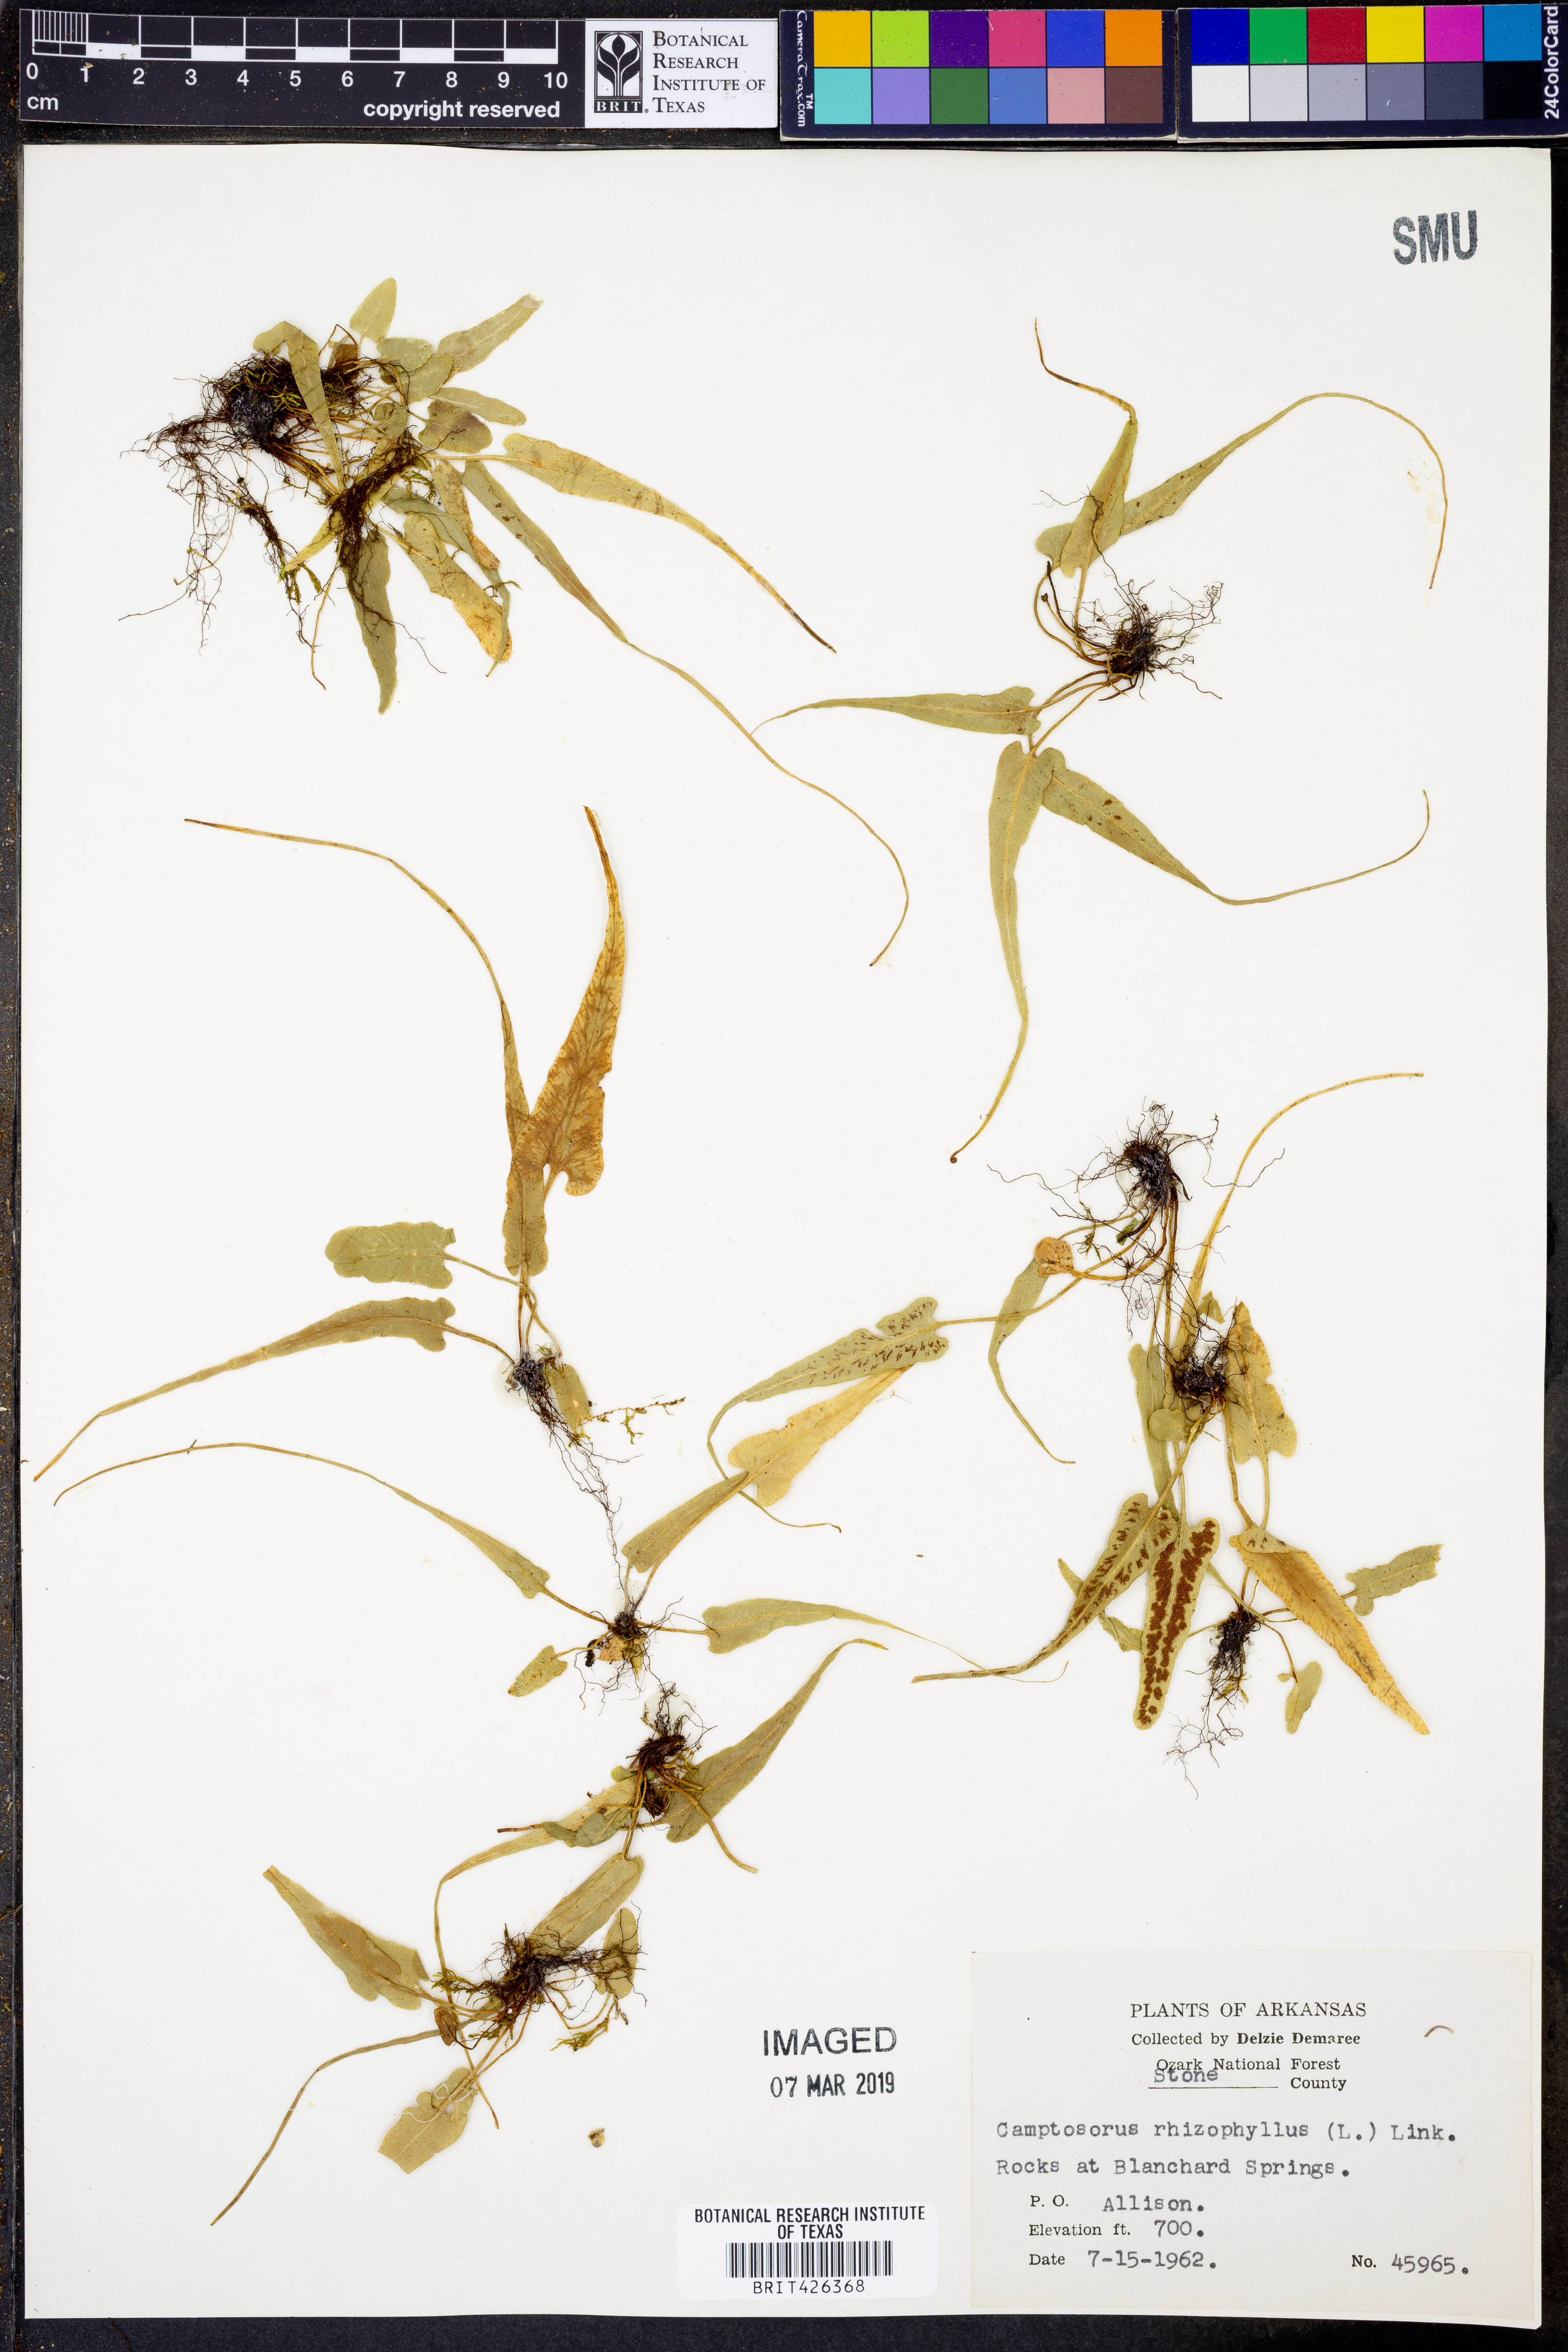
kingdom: Plantae
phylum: Tracheophyta
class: Polypodiopsida
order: Polypodiales
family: Aspleniaceae
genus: Asplenium
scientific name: Asplenium rhizophyllum
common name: Walking fern
